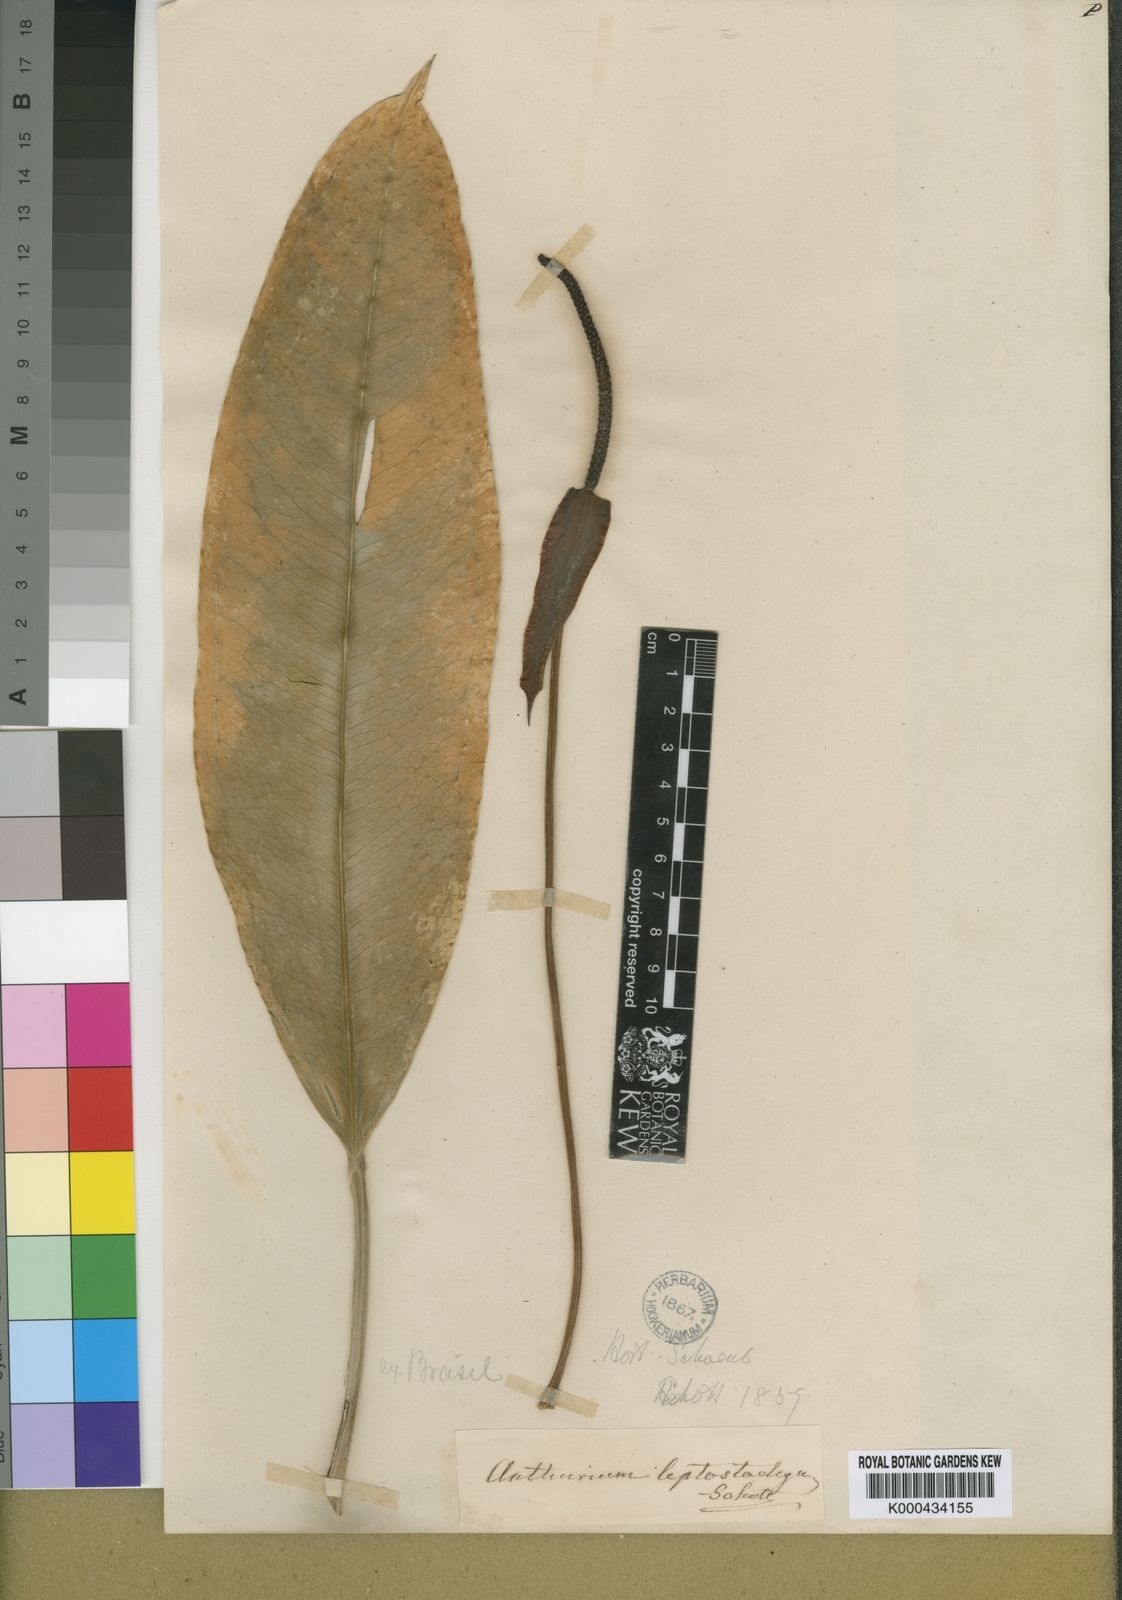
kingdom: Plantae
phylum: Tracheophyta
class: Liliopsida
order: Alismatales
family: Araceae
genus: Anthurium
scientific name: Anthurium intermedium
